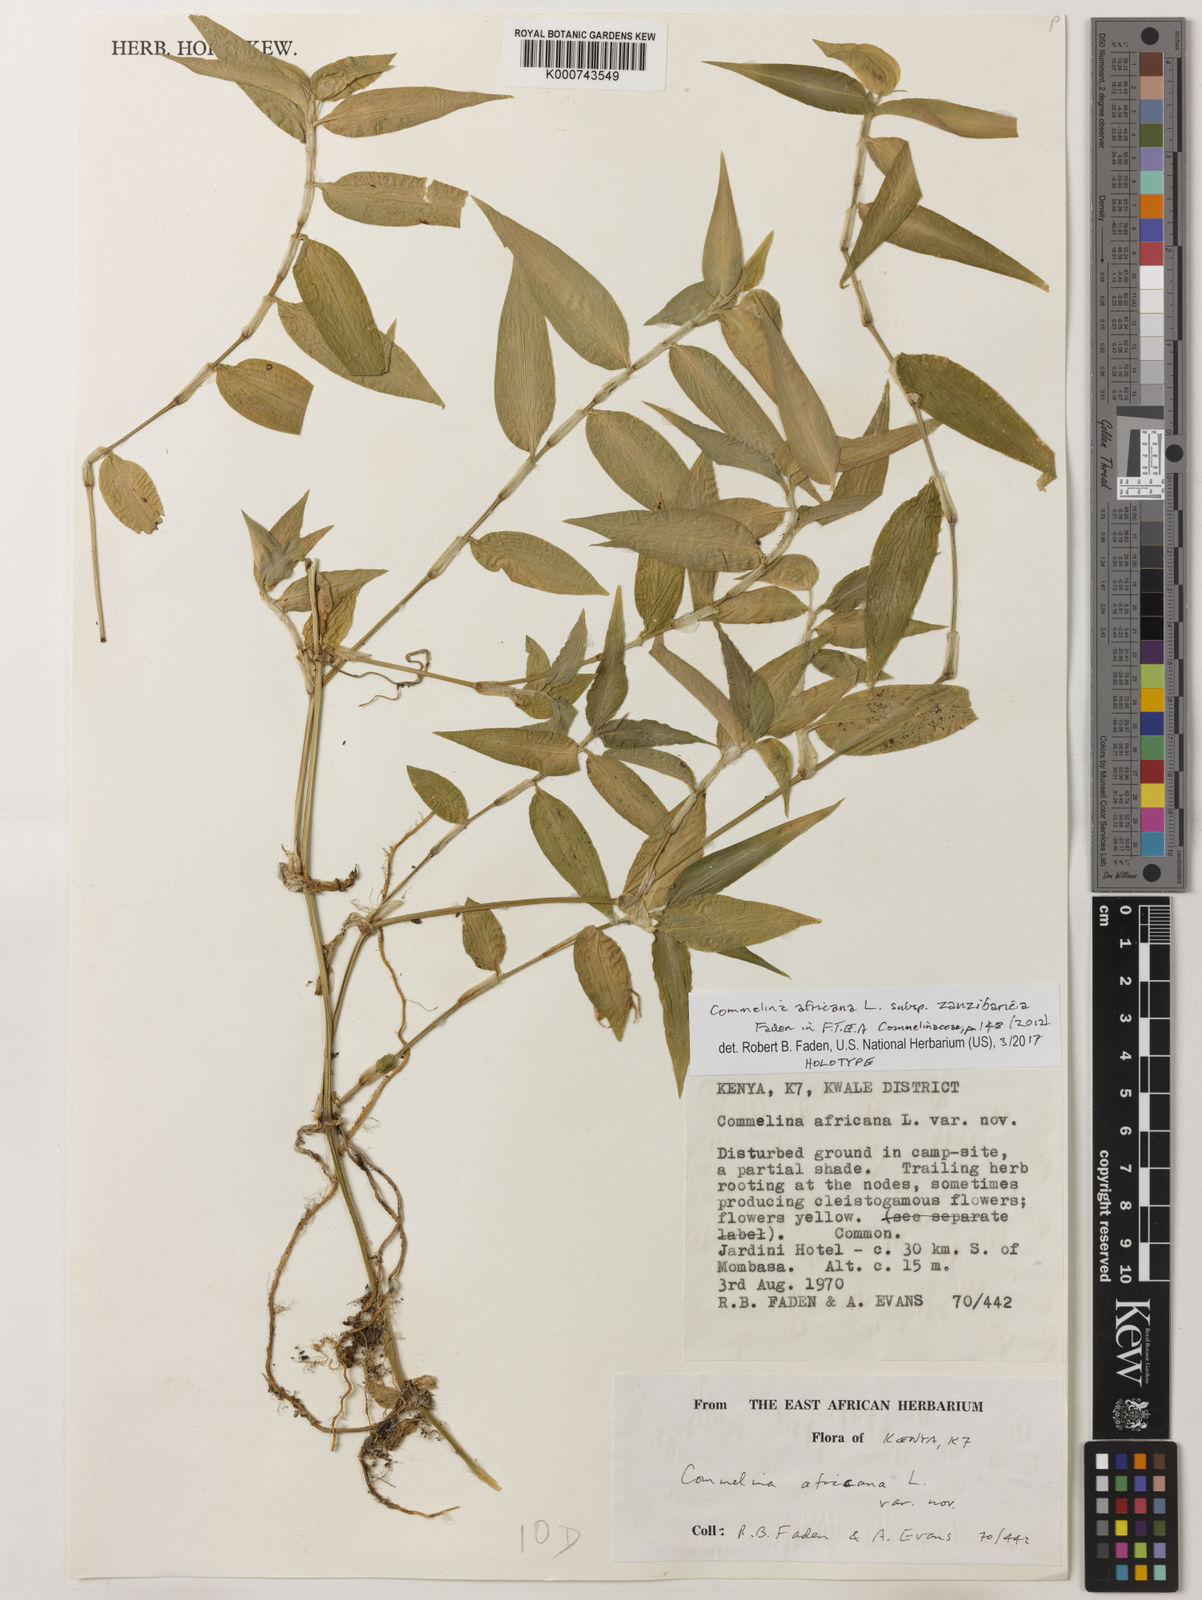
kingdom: Plantae
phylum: Tracheophyta
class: Liliopsida
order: Commelinales
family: Commelinaceae
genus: Commelina
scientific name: Commelina africana
